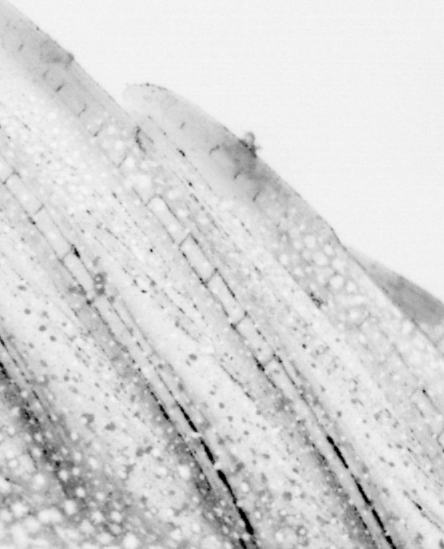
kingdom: Animalia
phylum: Chordata
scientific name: Chordata
